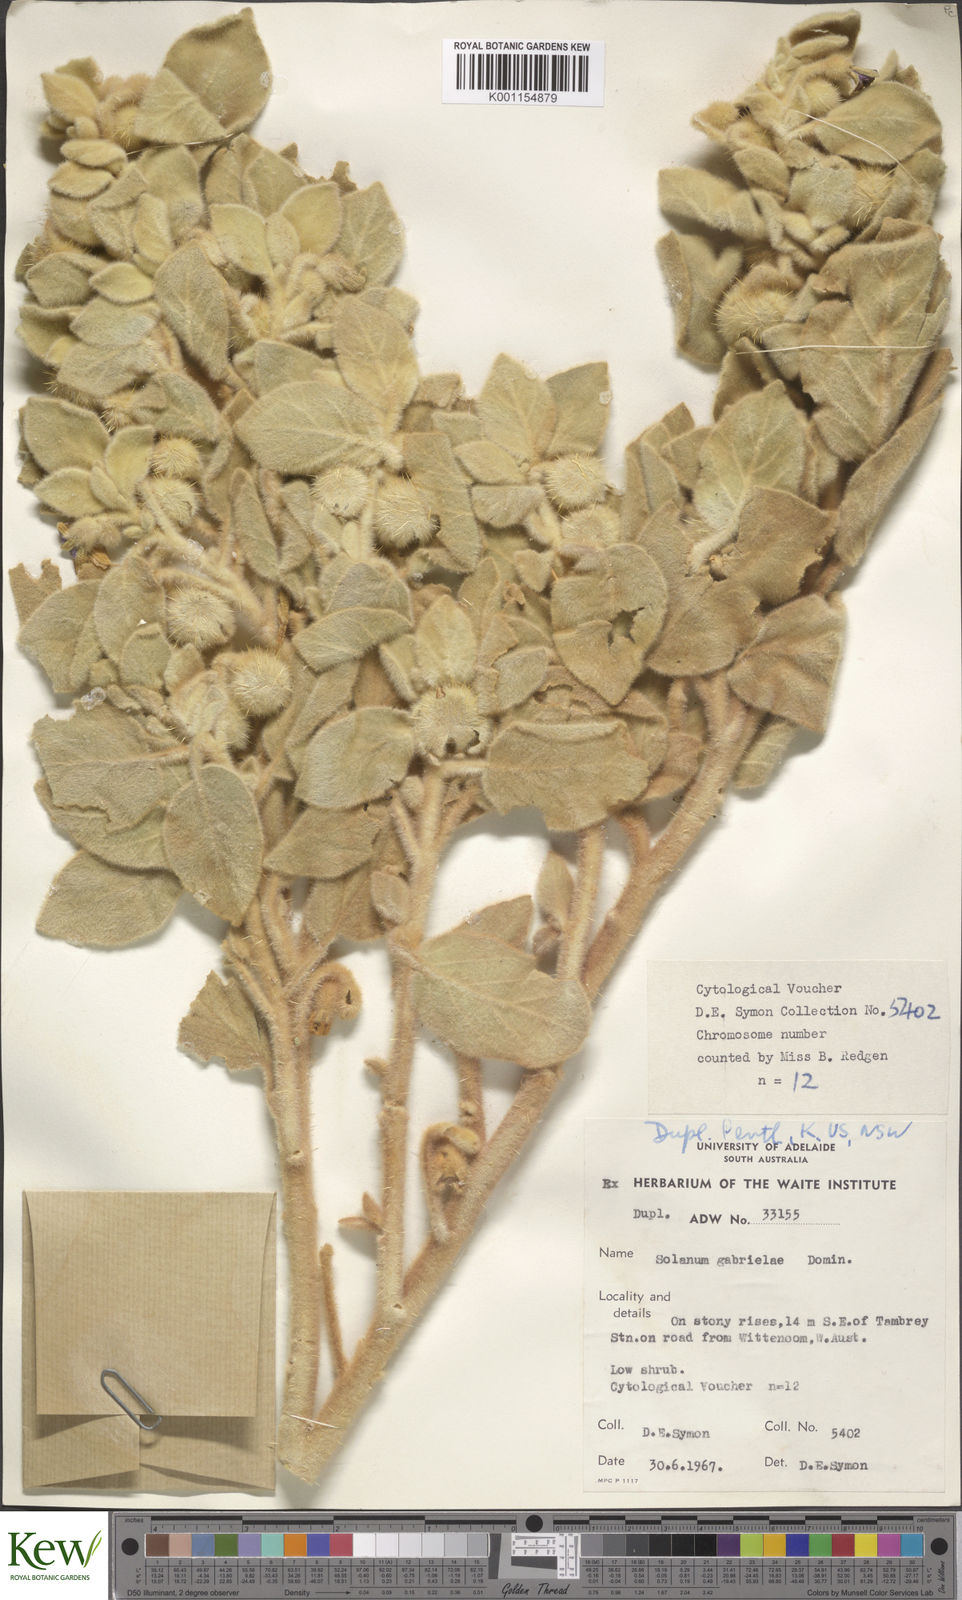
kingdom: Plantae
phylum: Tracheophyta
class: Magnoliopsida
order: Solanales
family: Solanaceae
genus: Solanum
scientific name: Solanum gabrielae
